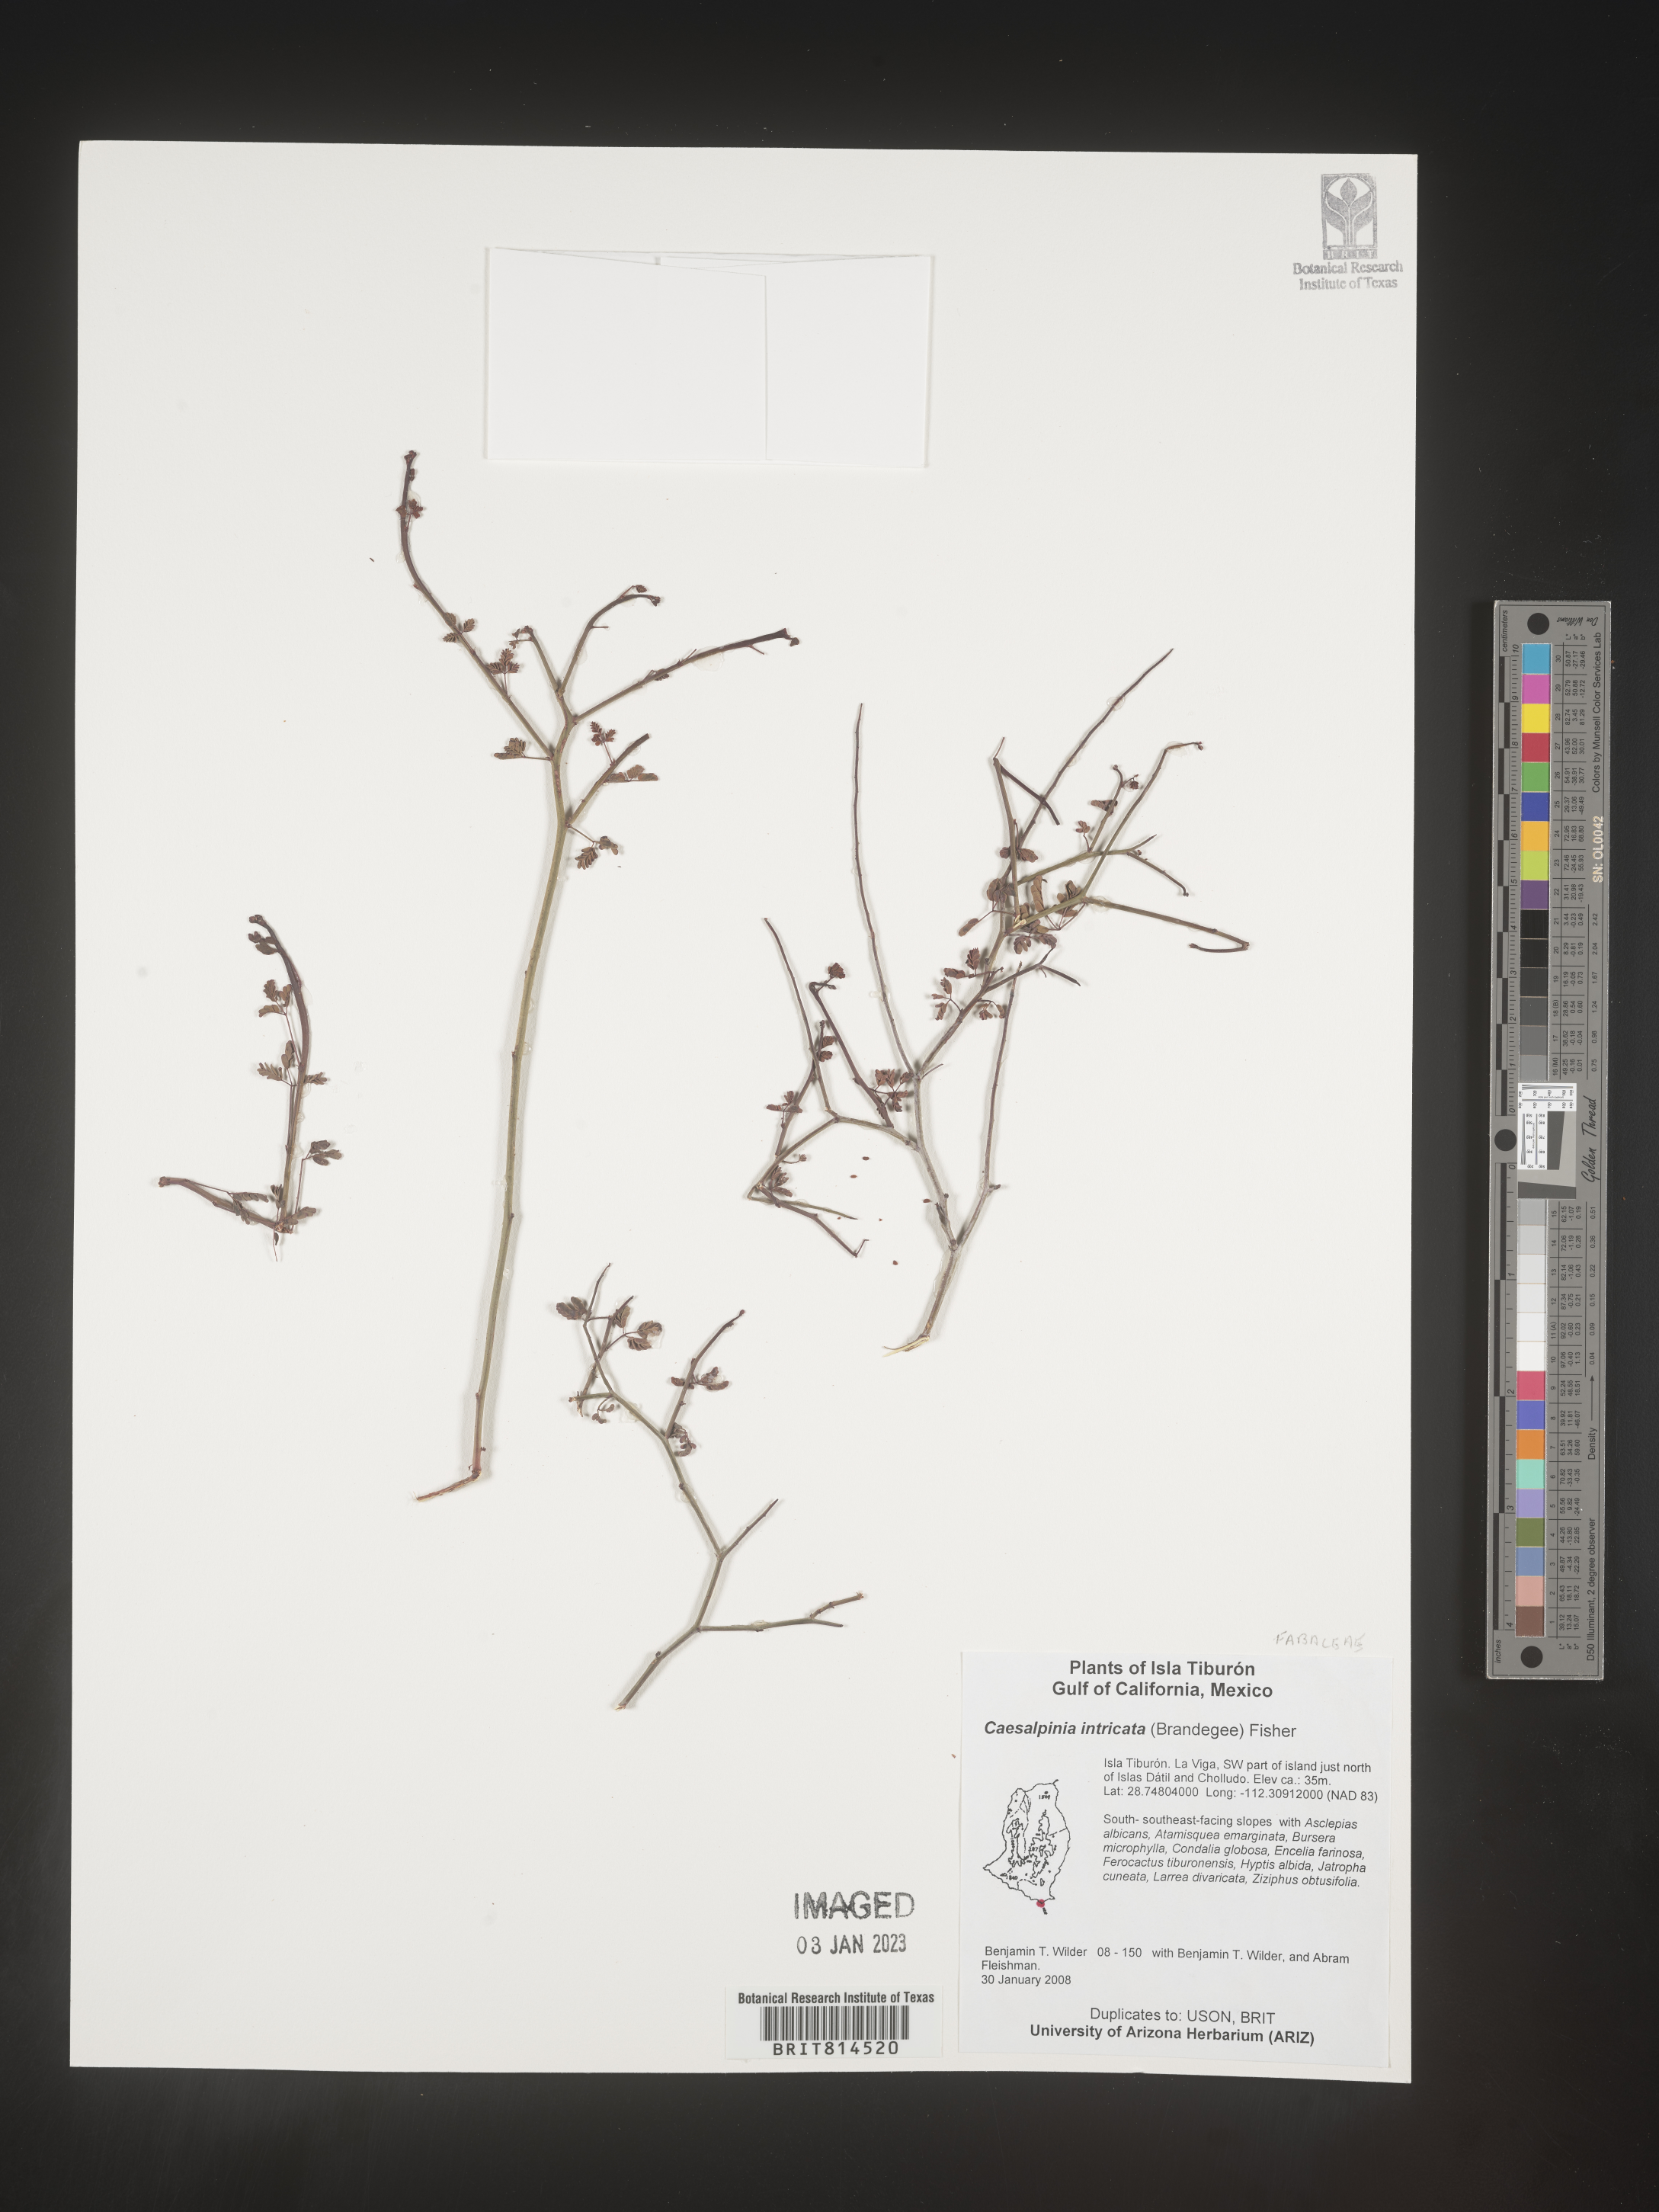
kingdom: Plantae
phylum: Tracheophyta
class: Magnoliopsida
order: Fabales
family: Fabaceae
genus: Caesalpinia
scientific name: Caesalpinia
